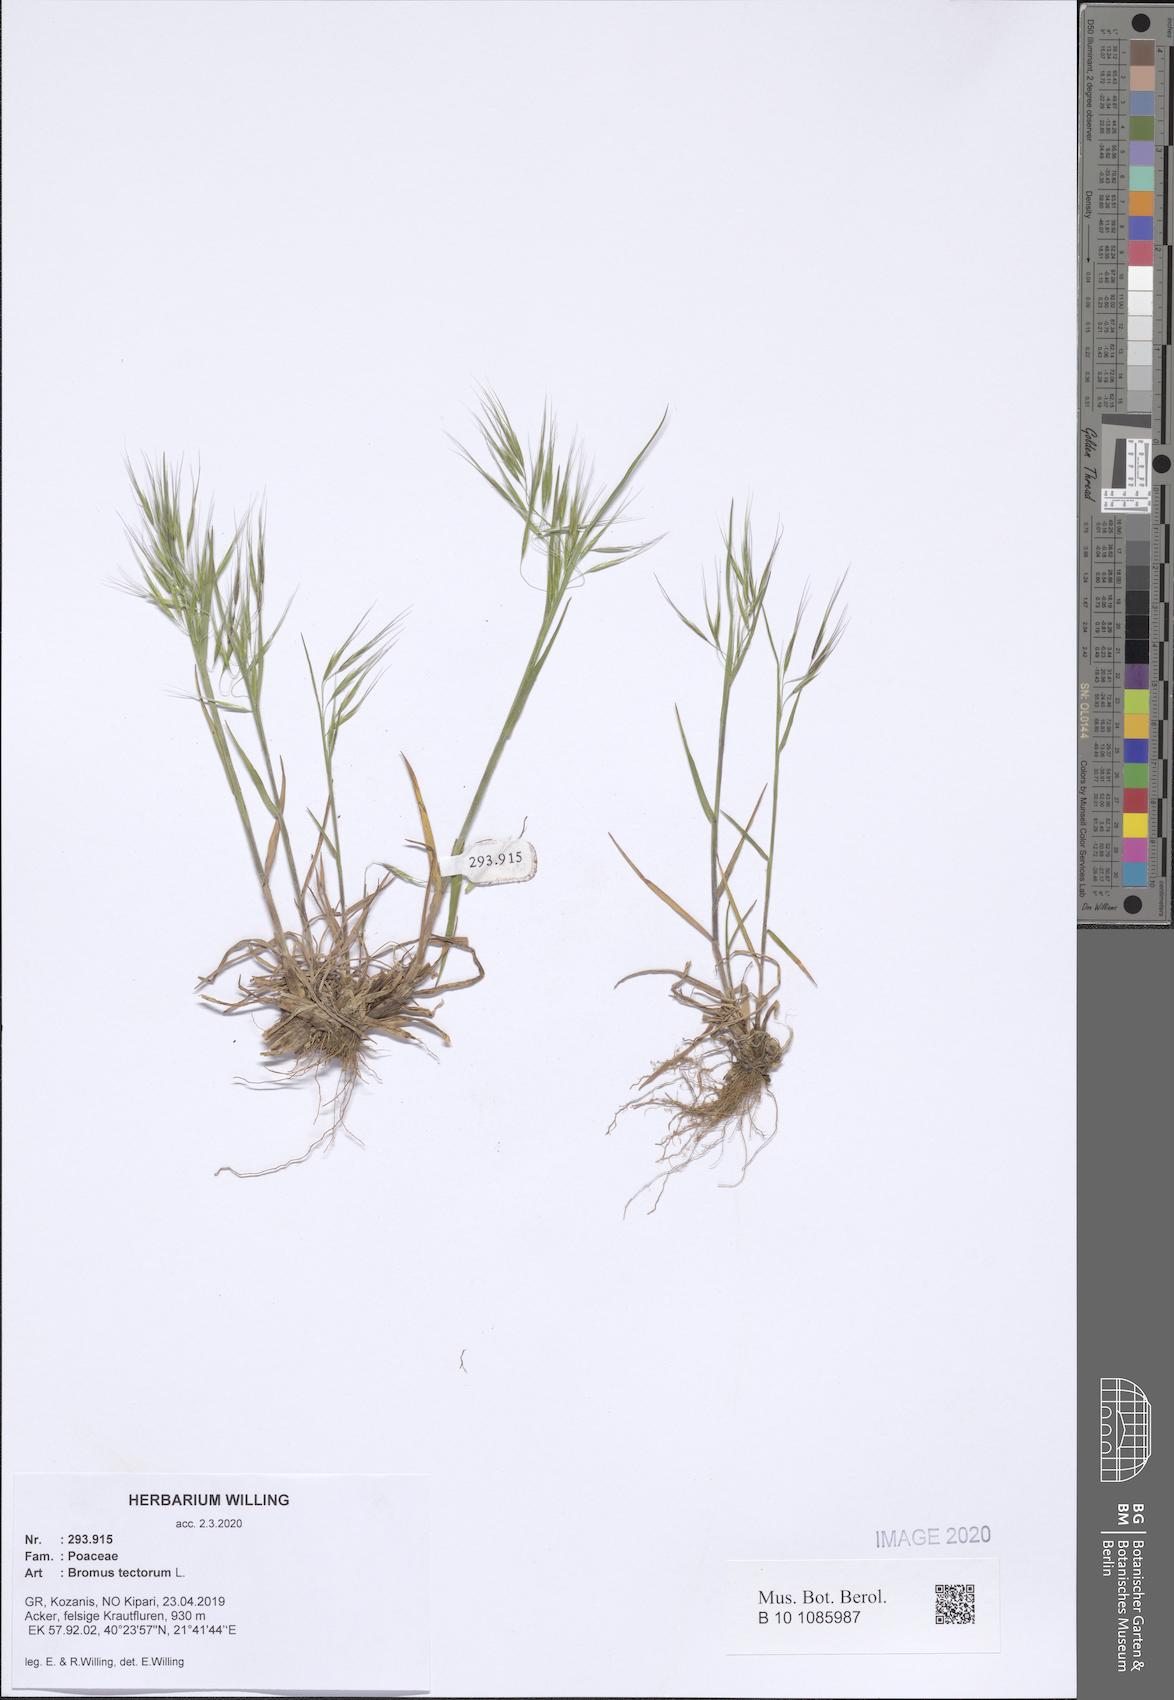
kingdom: Plantae
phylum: Tracheophyta
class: Liliopsida
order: Poales
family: Poaceae
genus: Bromus
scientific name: Bromus tectorum
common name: Cheatgrass
